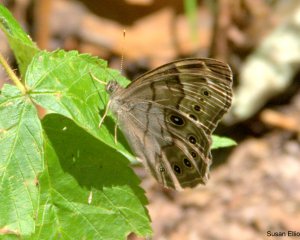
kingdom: Animalia
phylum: Arthropoda
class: Insecta
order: Lepidoptera
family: Nymphalidae
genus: Lethe
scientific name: Lethe anthedon
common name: Northern Pearly-Eye
